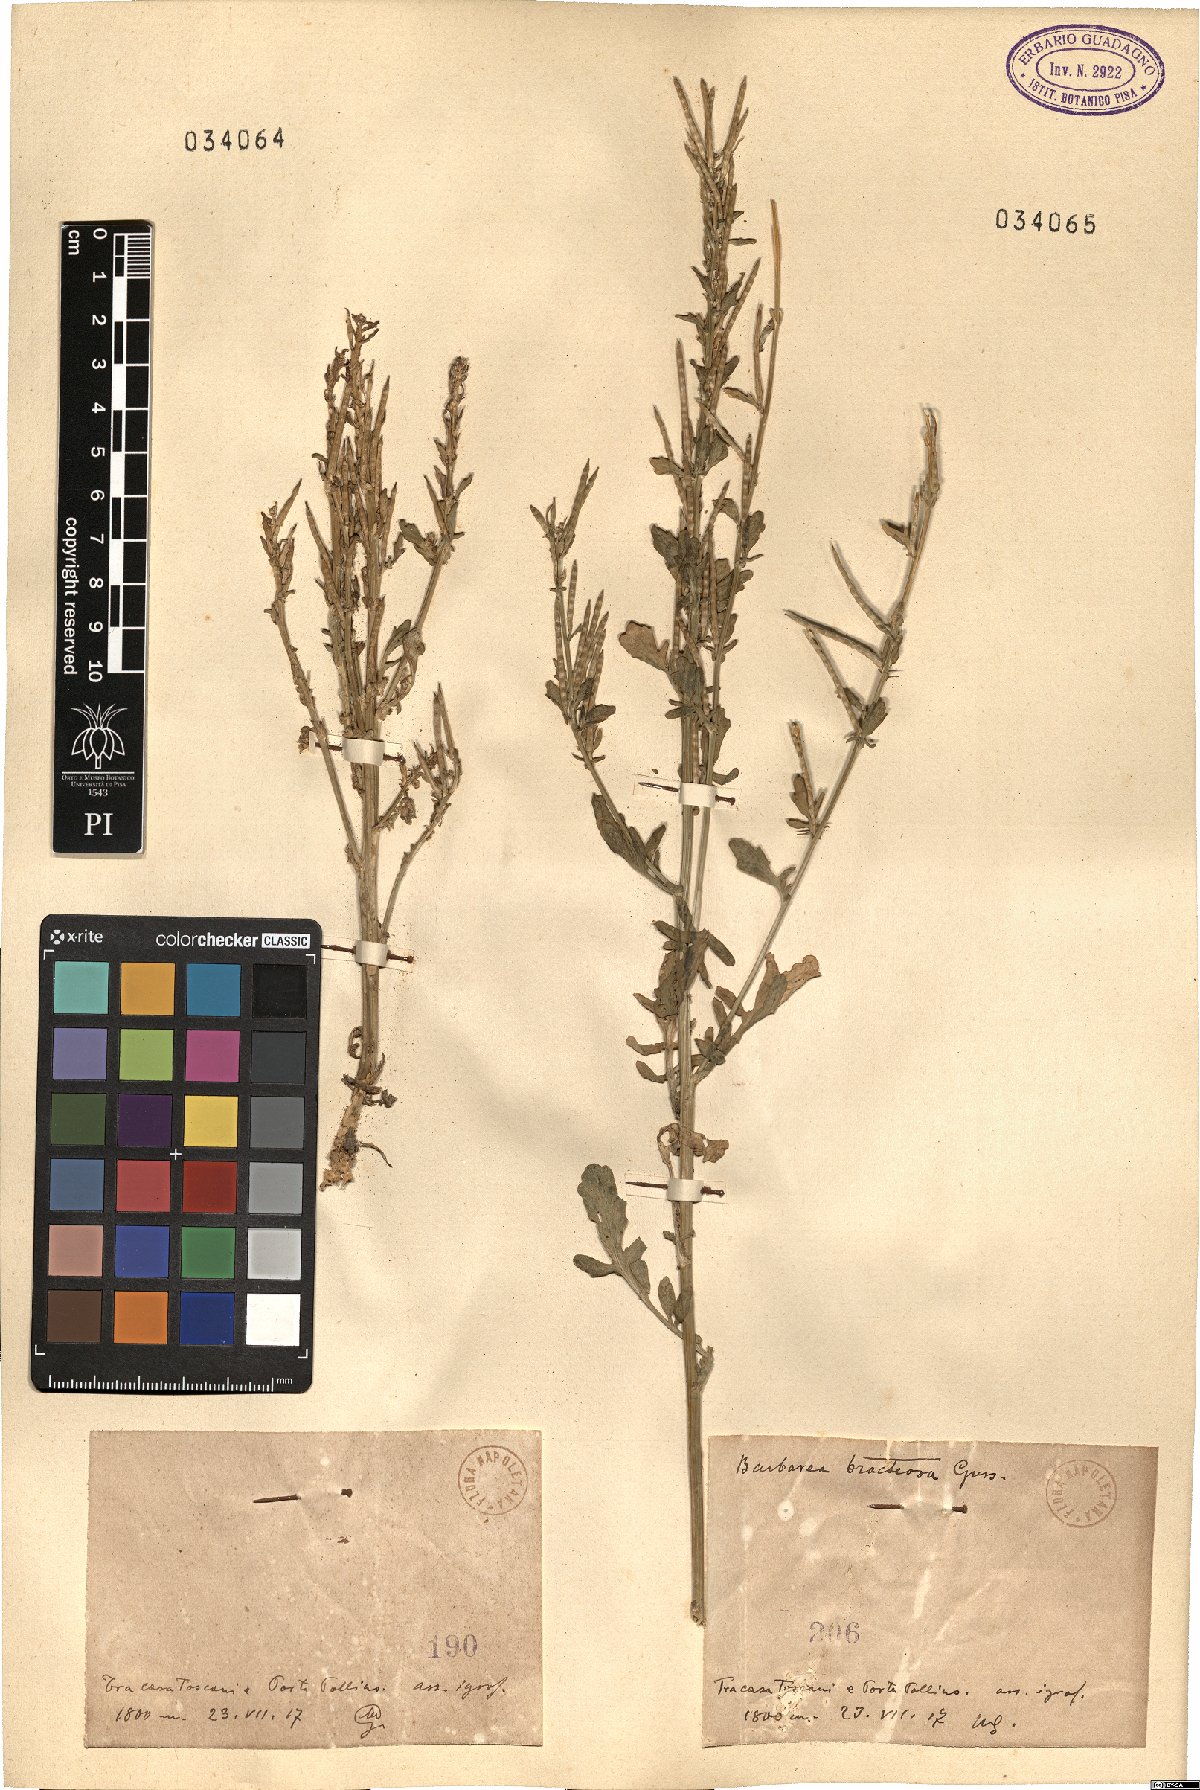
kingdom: Plantae
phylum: Tracheophyta
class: Magnoliopsida
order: Brassicales
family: Brassicaceae
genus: Barbarea
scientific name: Barbarea bracteosa
